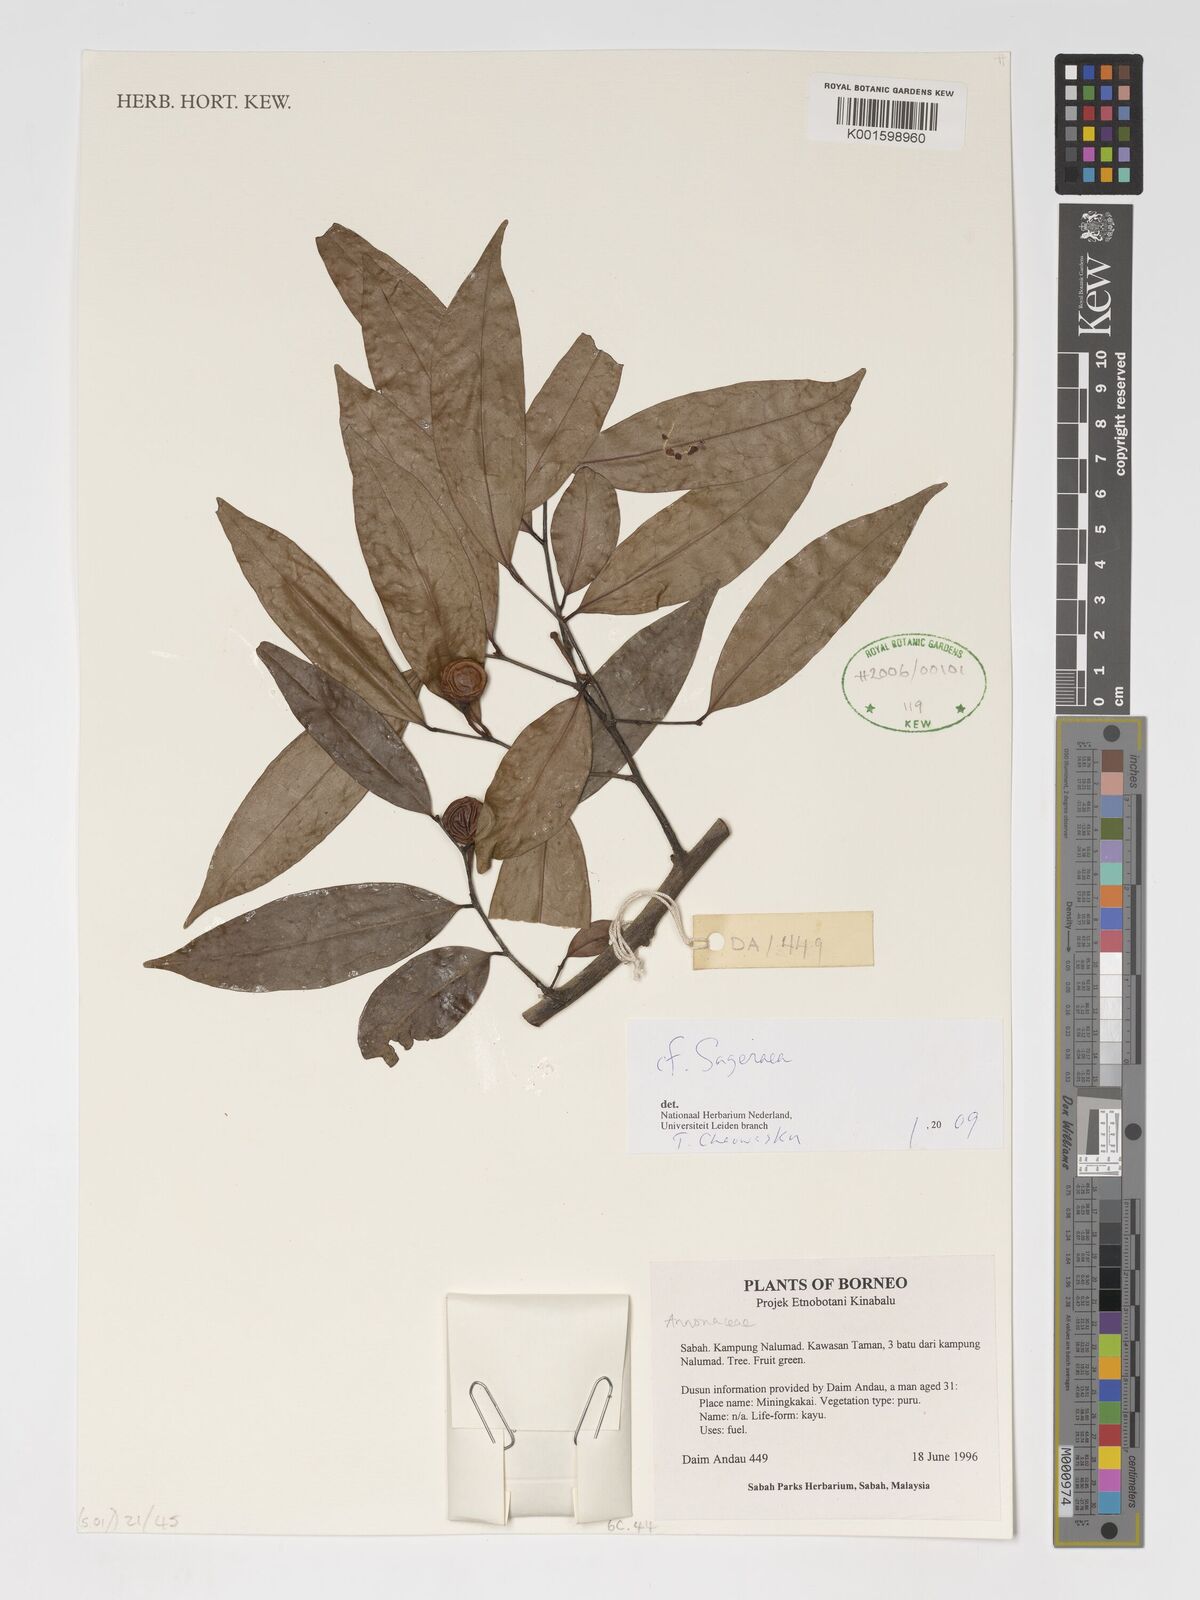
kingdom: Plantae
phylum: Tracheophyta
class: Magnoliopsida
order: Magnoliales
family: Annonaceae
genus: Sageraea
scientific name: Sageraea
